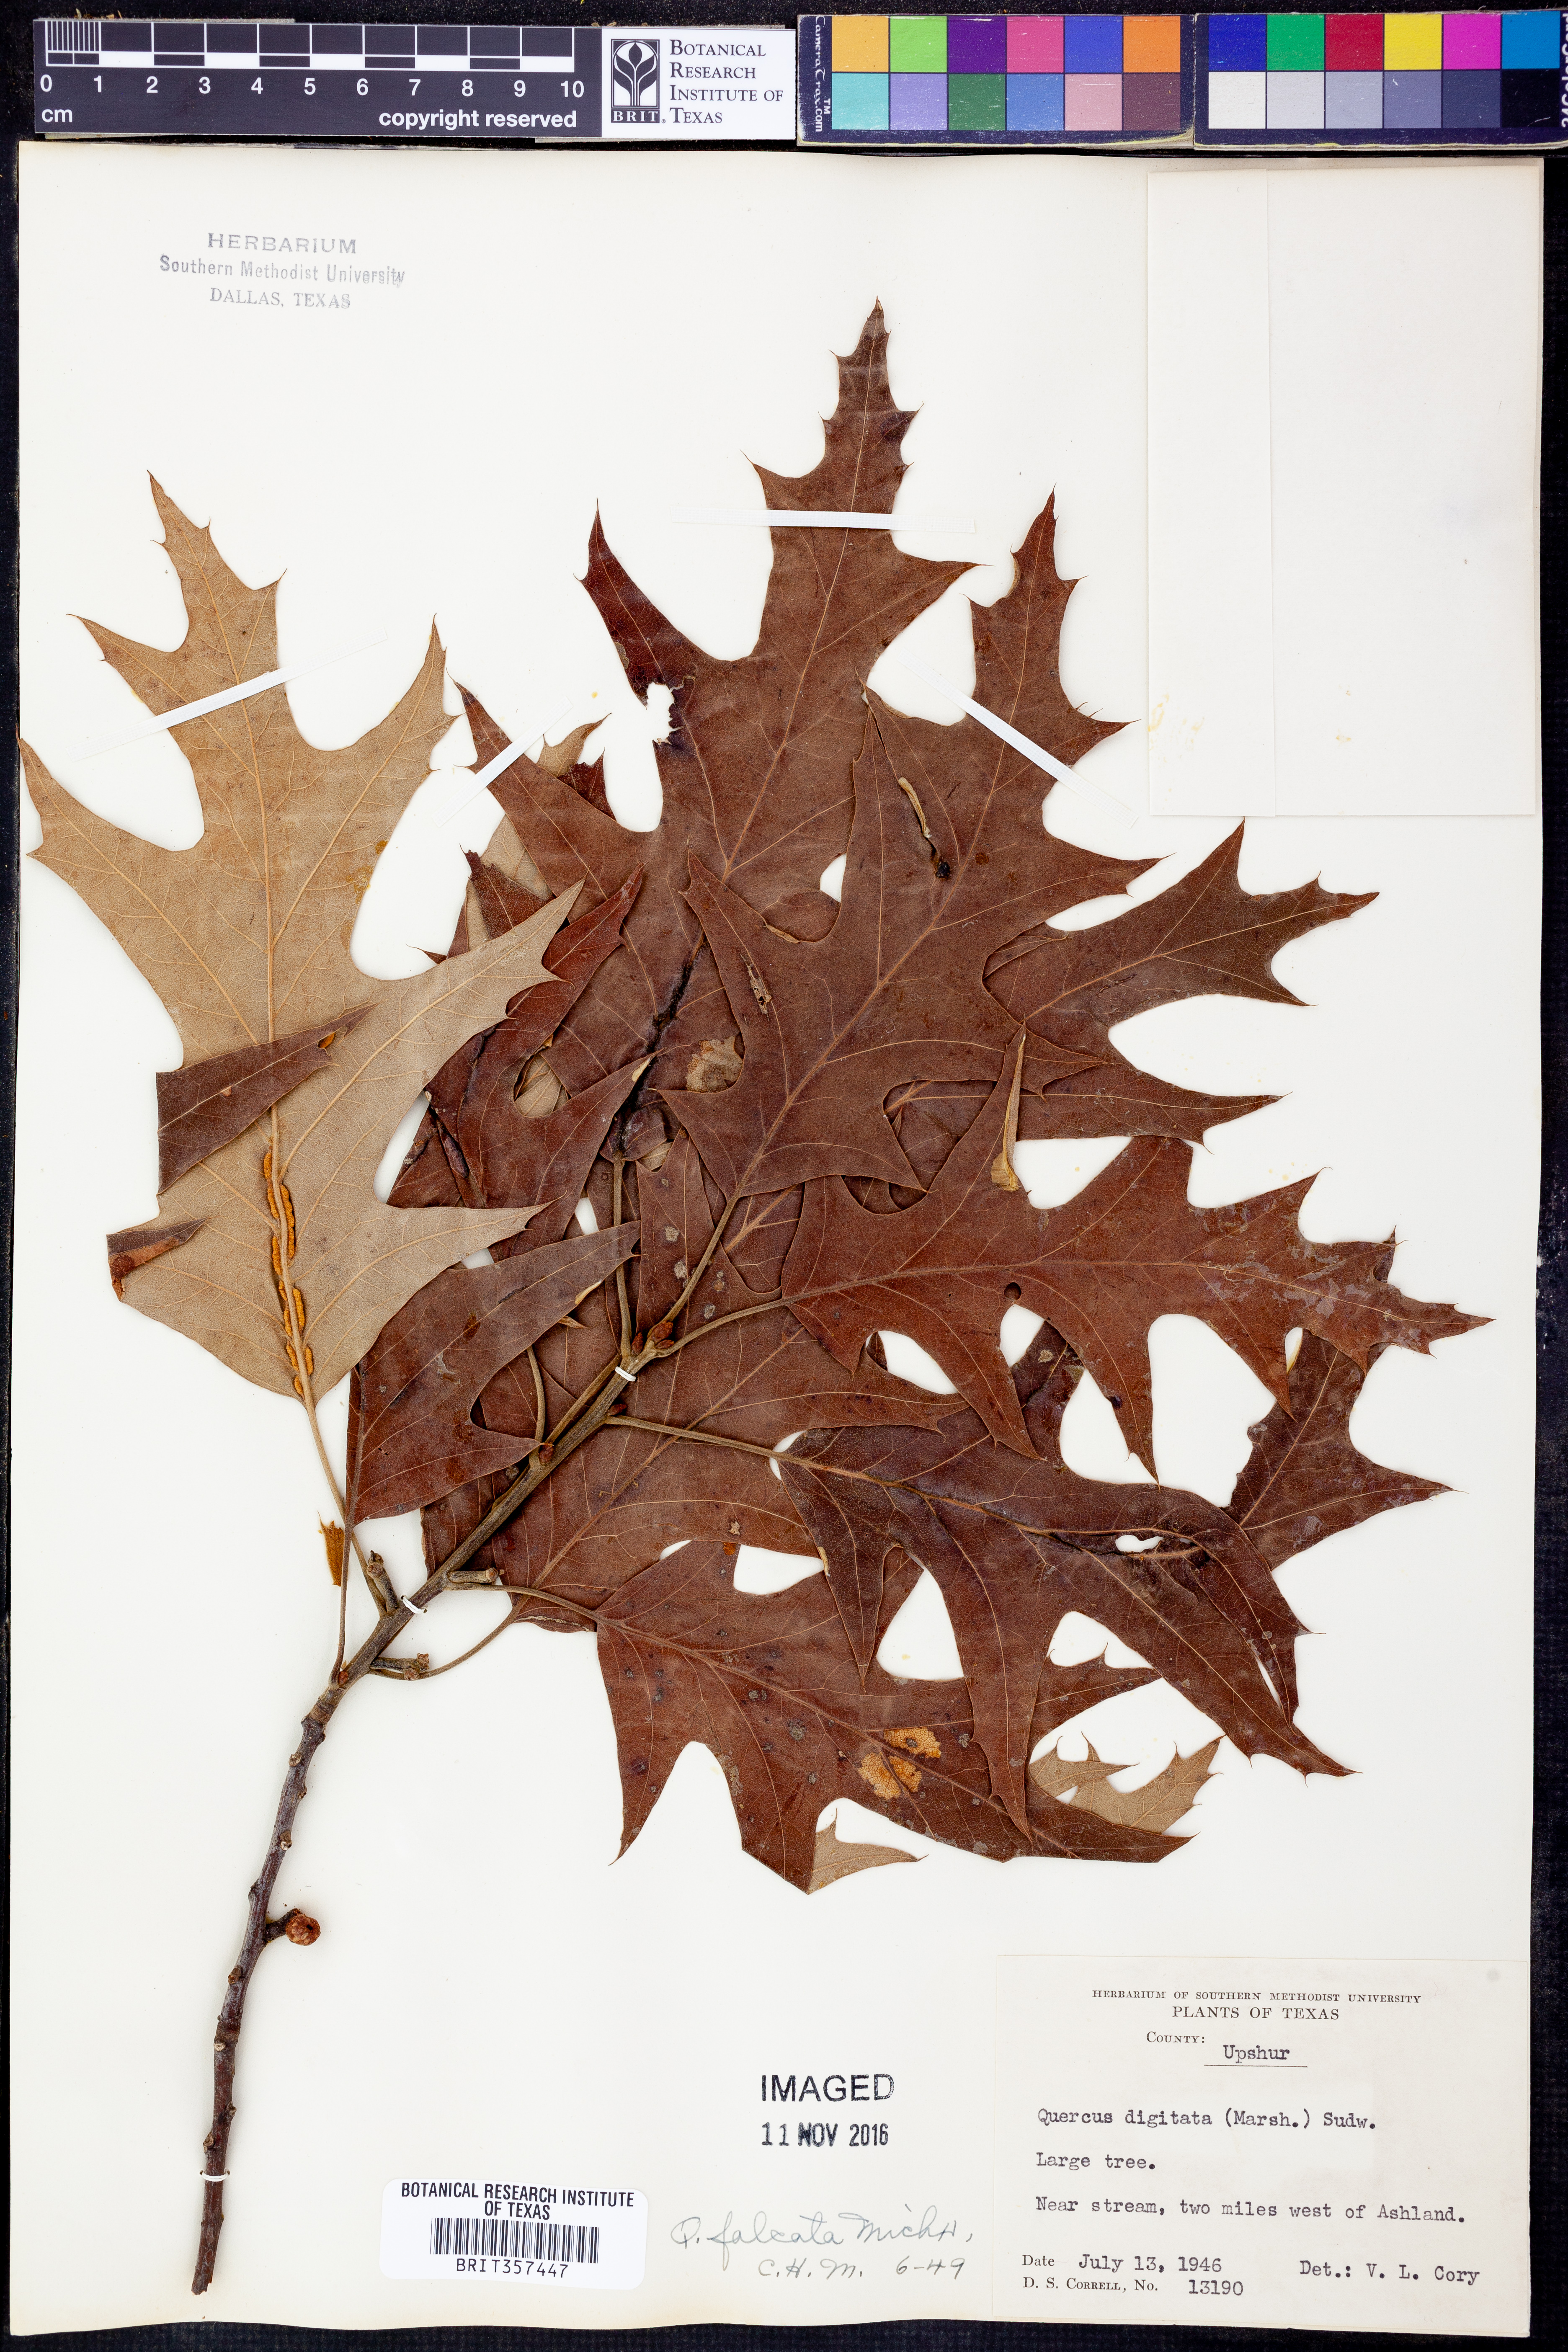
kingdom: Plantae
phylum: Tracheophyta
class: Magnoliopsida
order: Fagales
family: Fagaceae
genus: Quercus
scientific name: Quercus falcata
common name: Southern red oak
